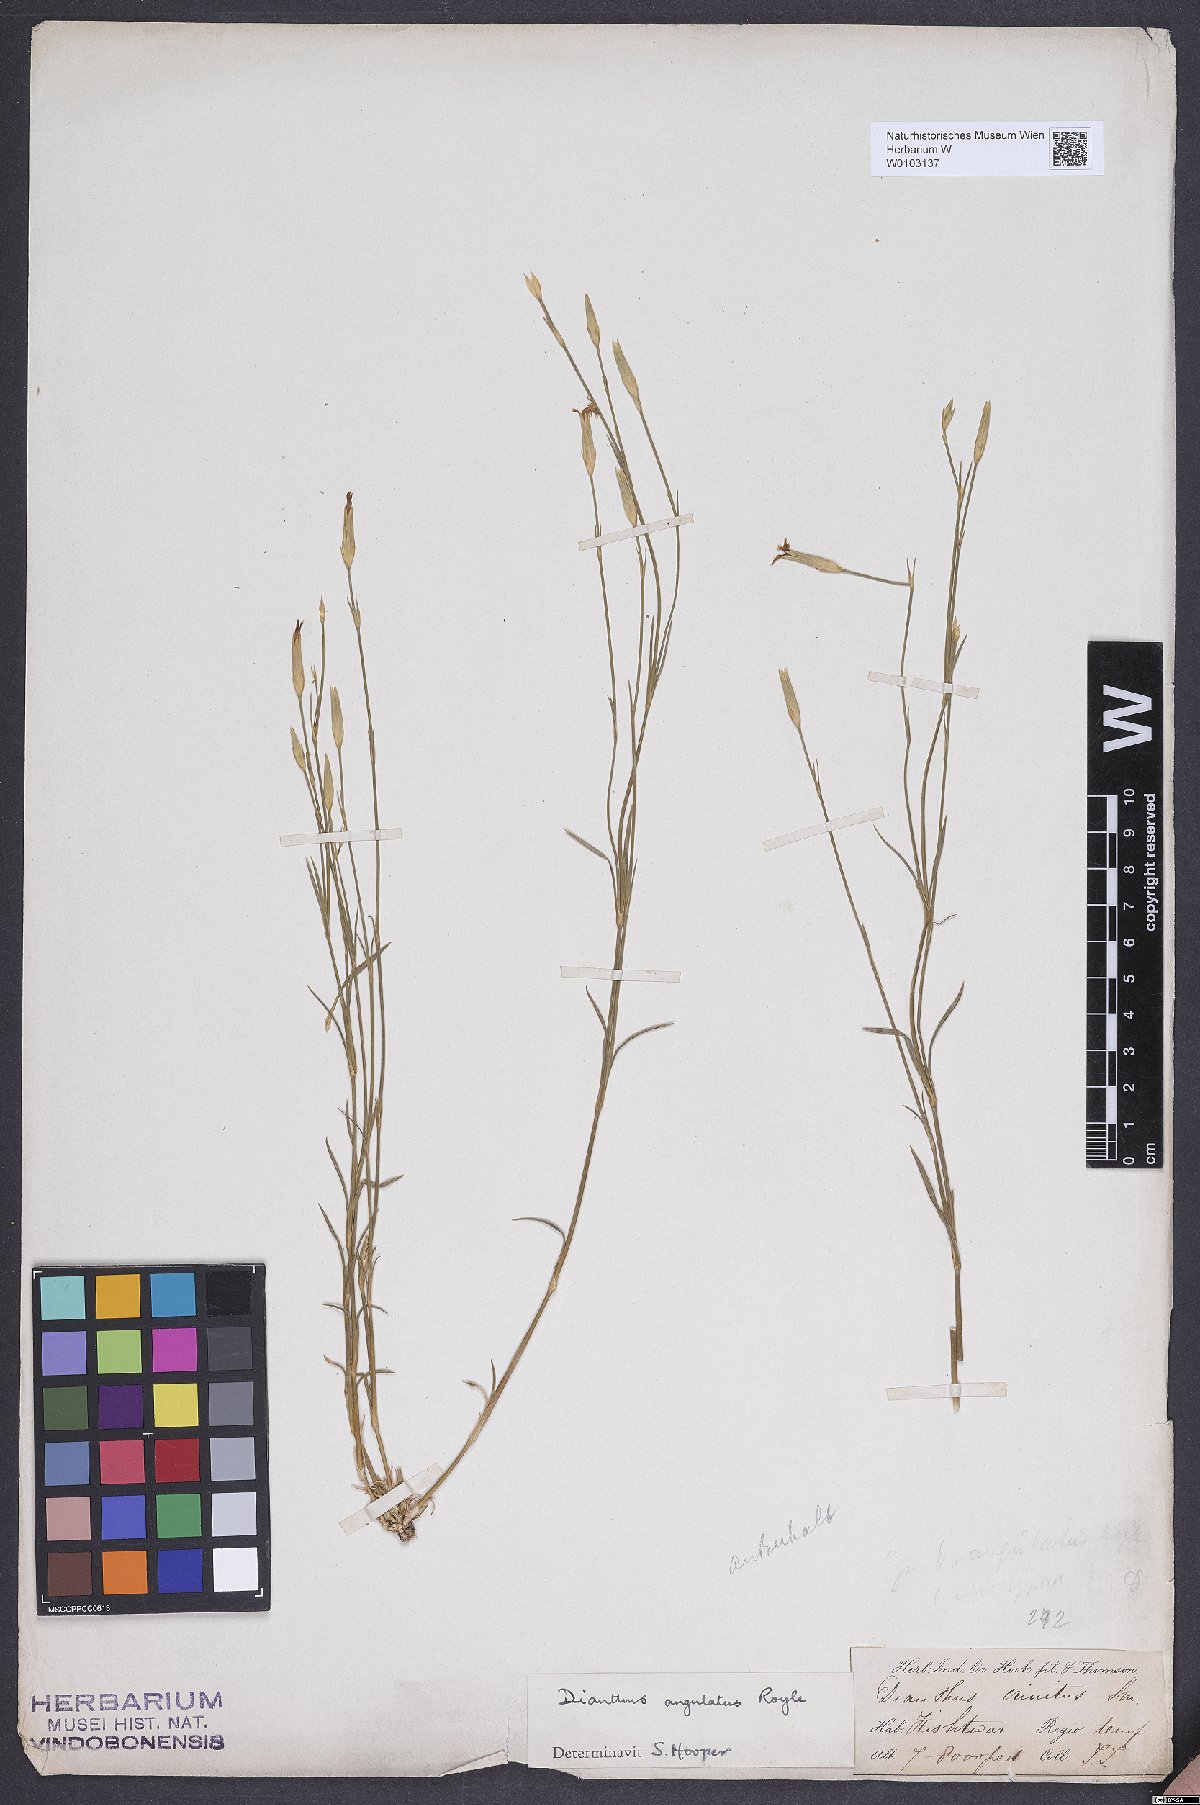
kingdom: Plantae
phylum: Tracheophyta
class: Magnoliopsida
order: Caryophyllales
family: Caryophyllaceae
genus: Dianthus
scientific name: Dianthus angulatus
